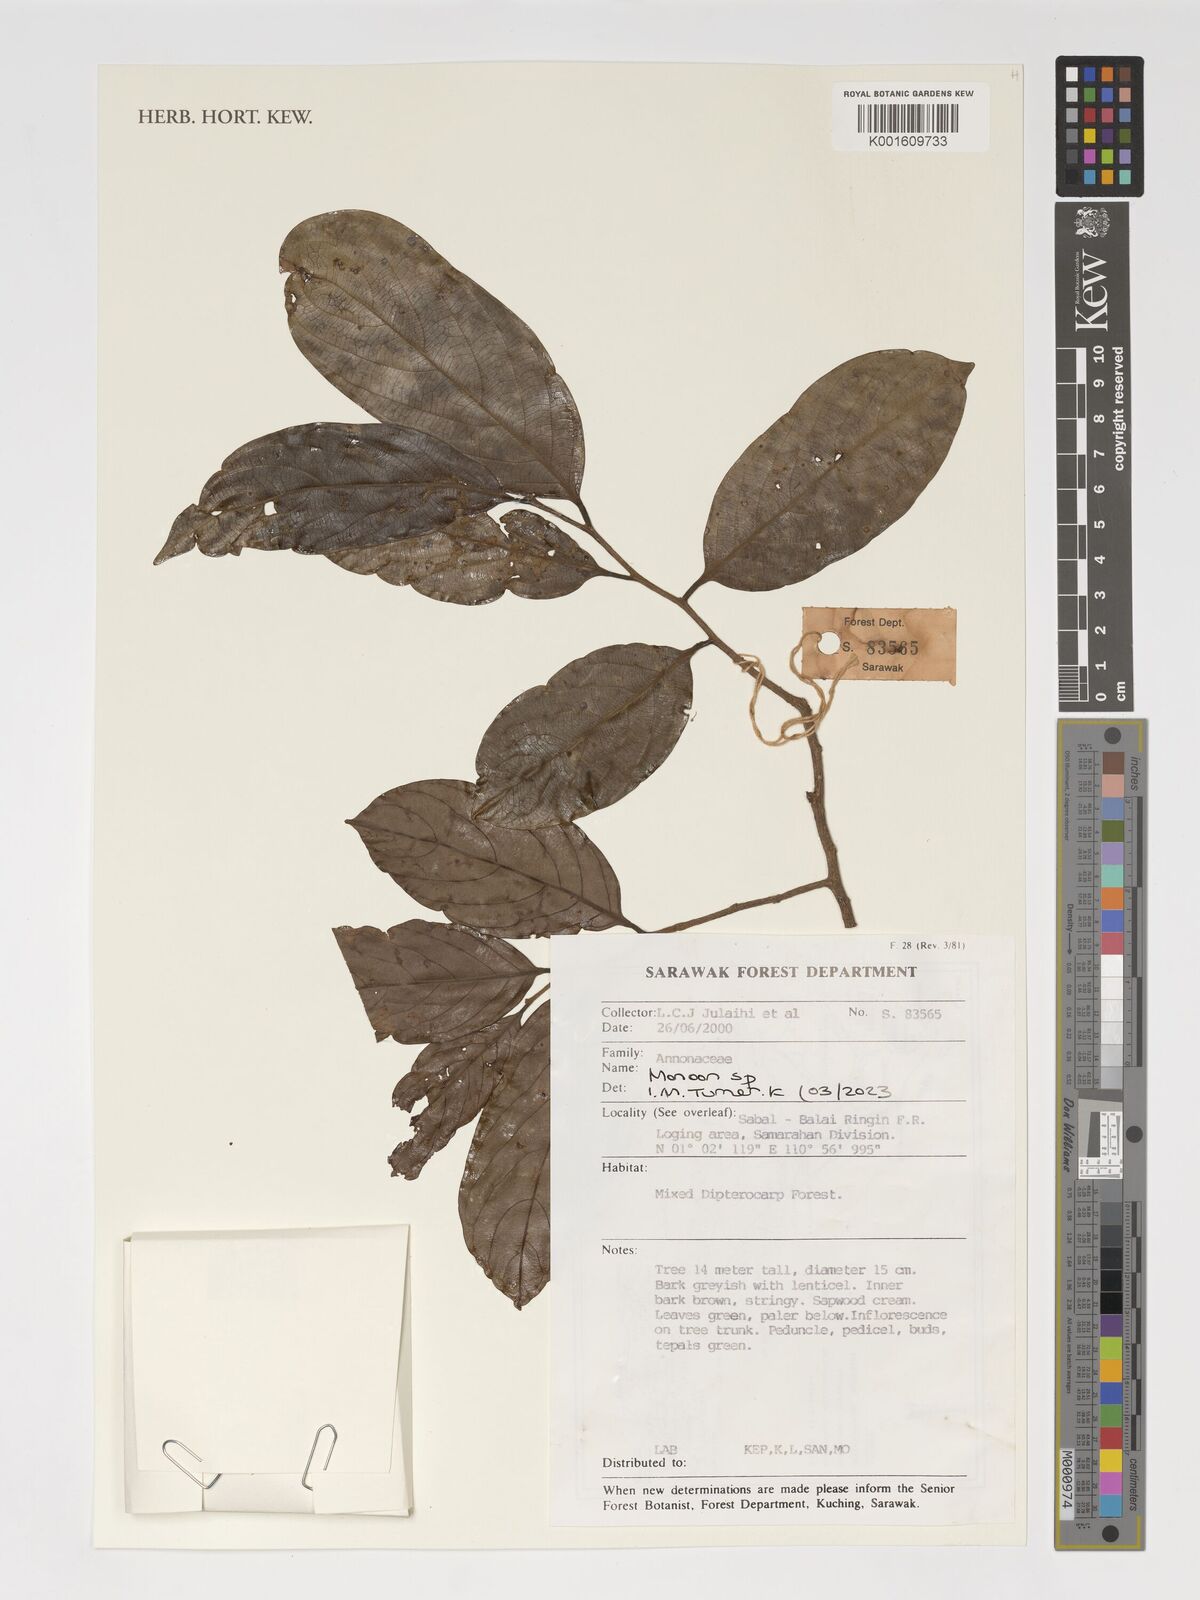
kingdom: Plantae
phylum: Tracheophyta
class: Magnoliopsida
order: Magnoliales
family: Annonaceae
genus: Monoon
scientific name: Monoon
